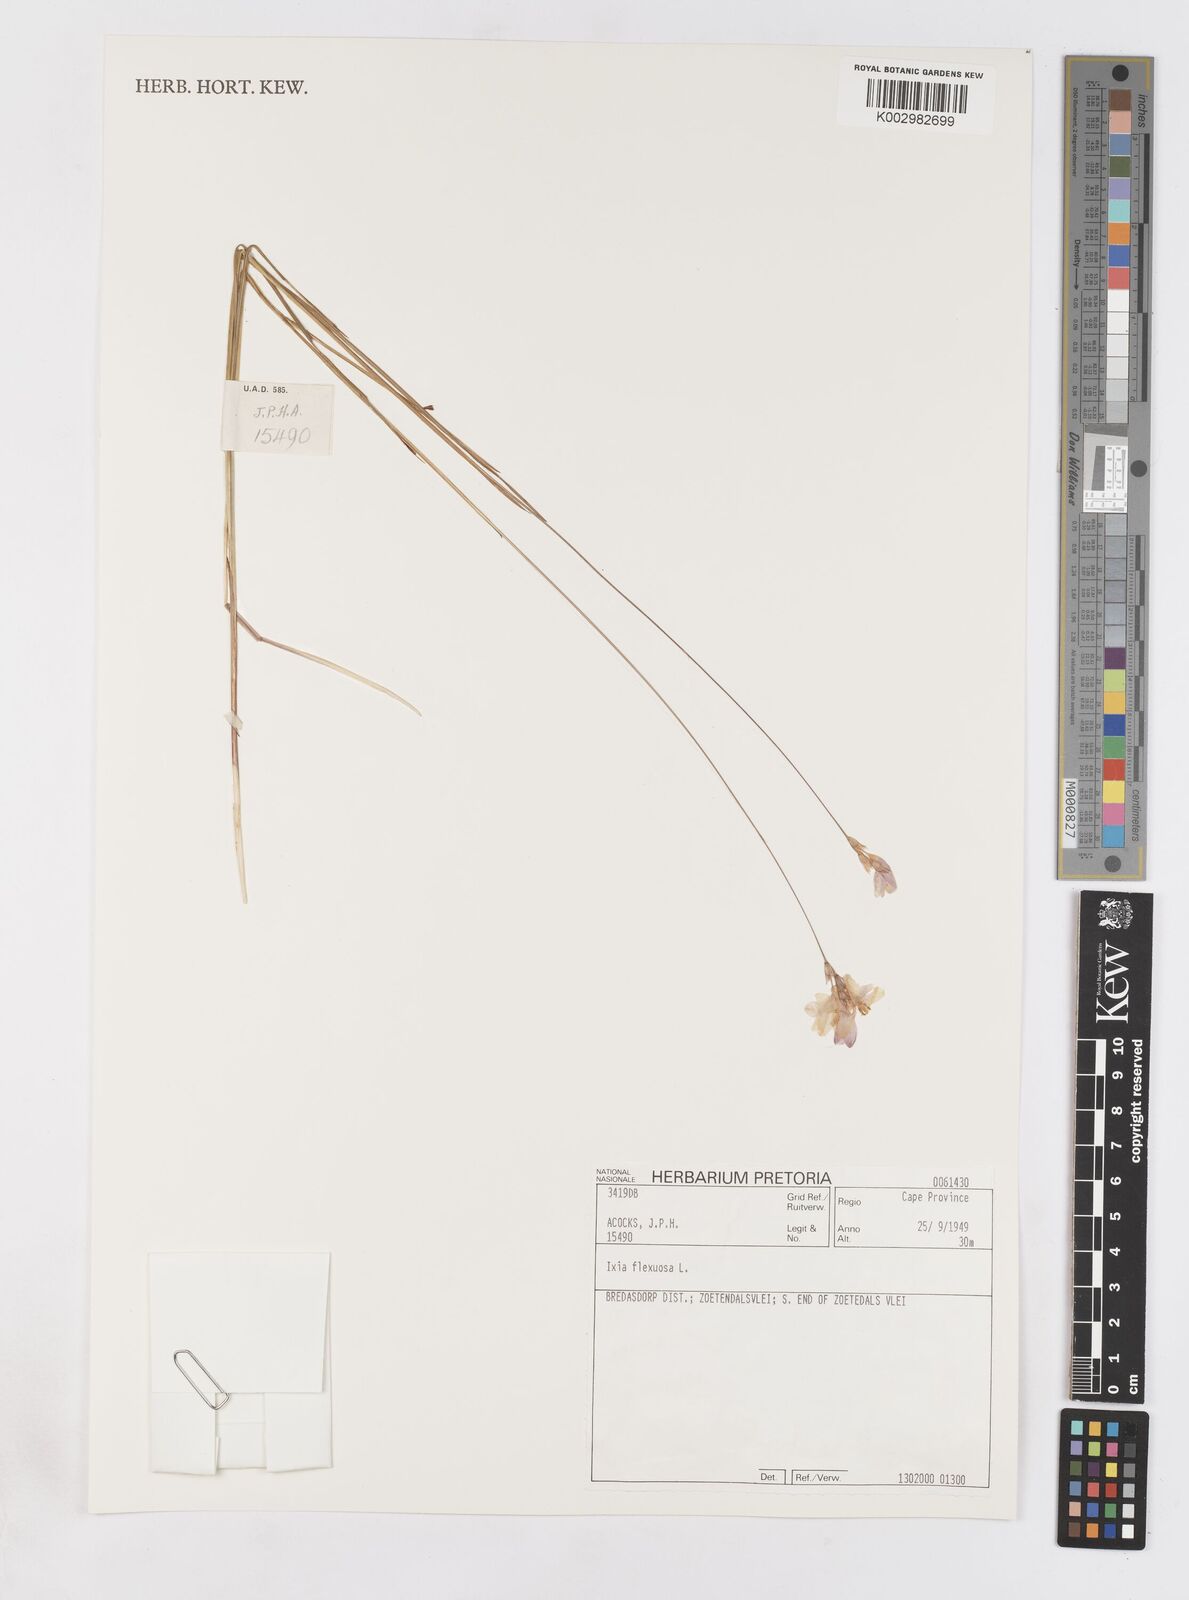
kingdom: Plantae
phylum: Tracheophyta
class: Liliopsida
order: Asparagales
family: Iridaceae
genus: Ixia
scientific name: Ixia flexuosa
